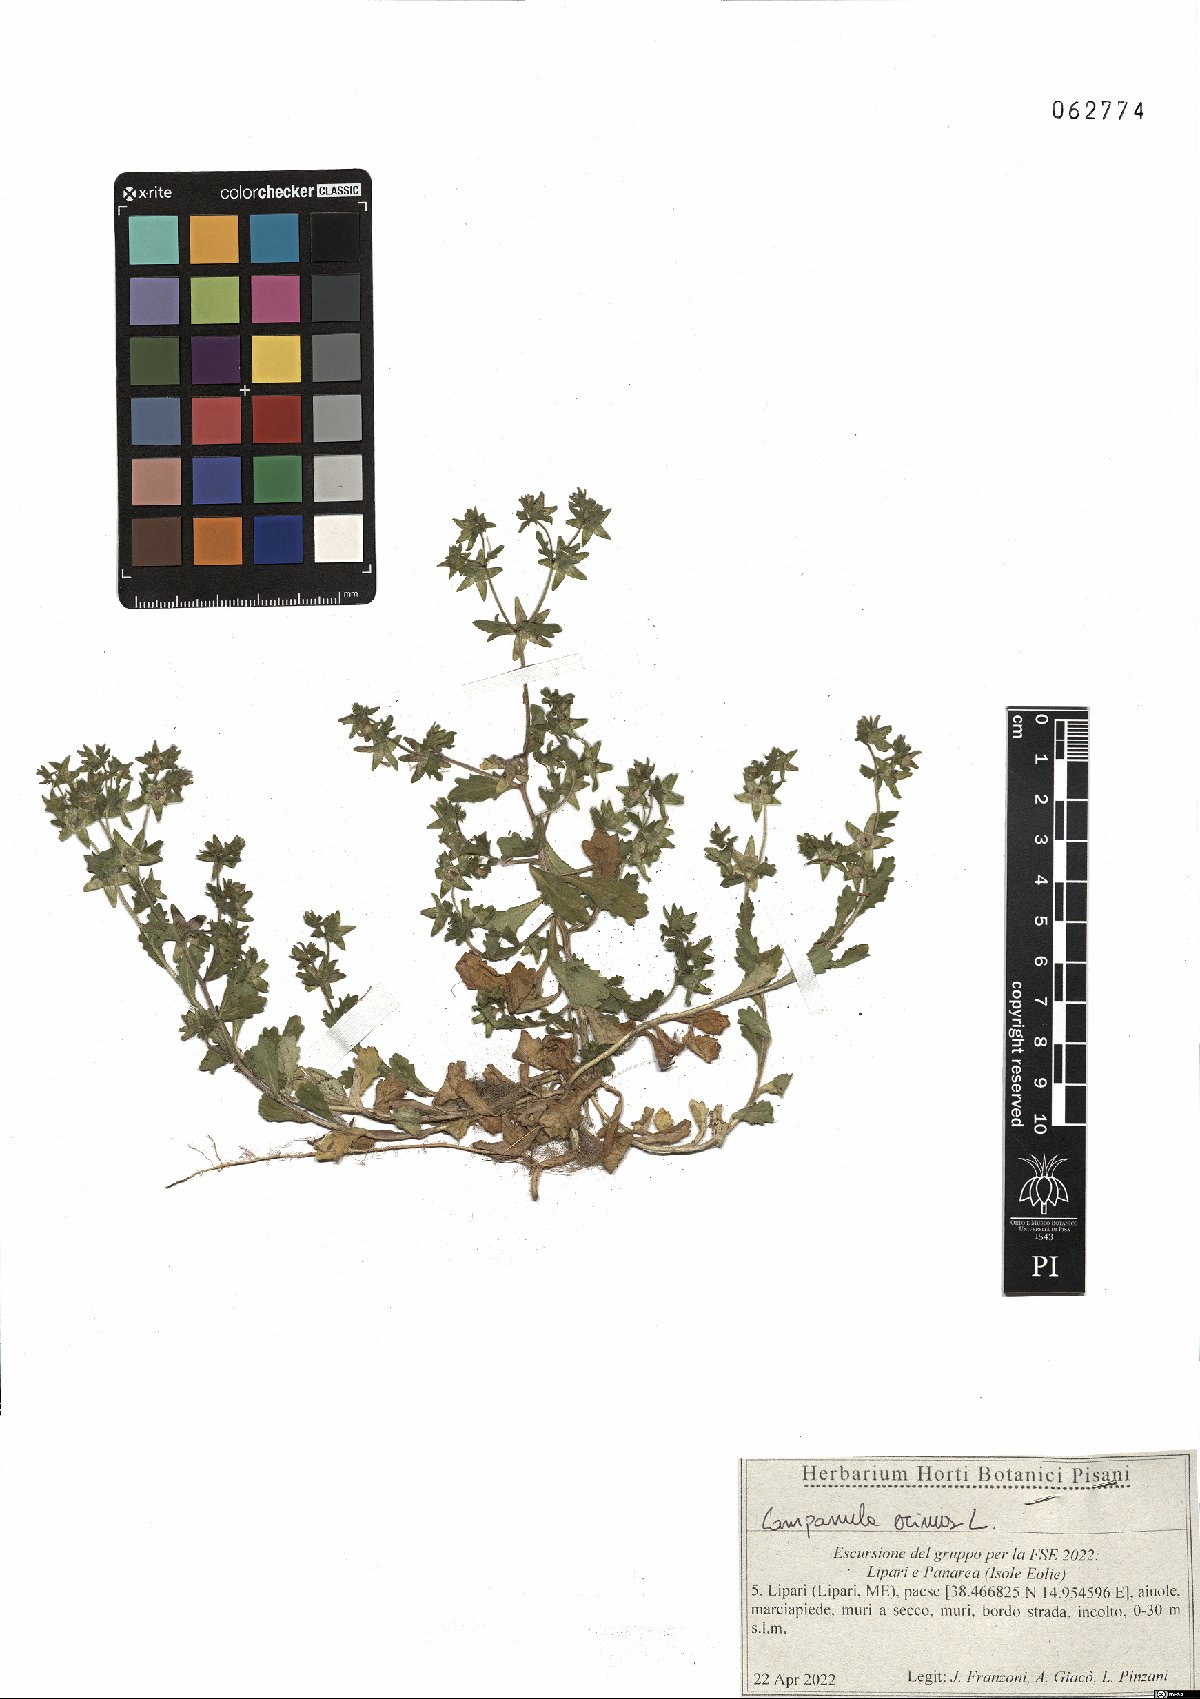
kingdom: Plantae
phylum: Tracheophyta
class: Magnoliopsida
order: Asterales
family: Campanulaceae
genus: Campanula
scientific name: Campanula erinus
